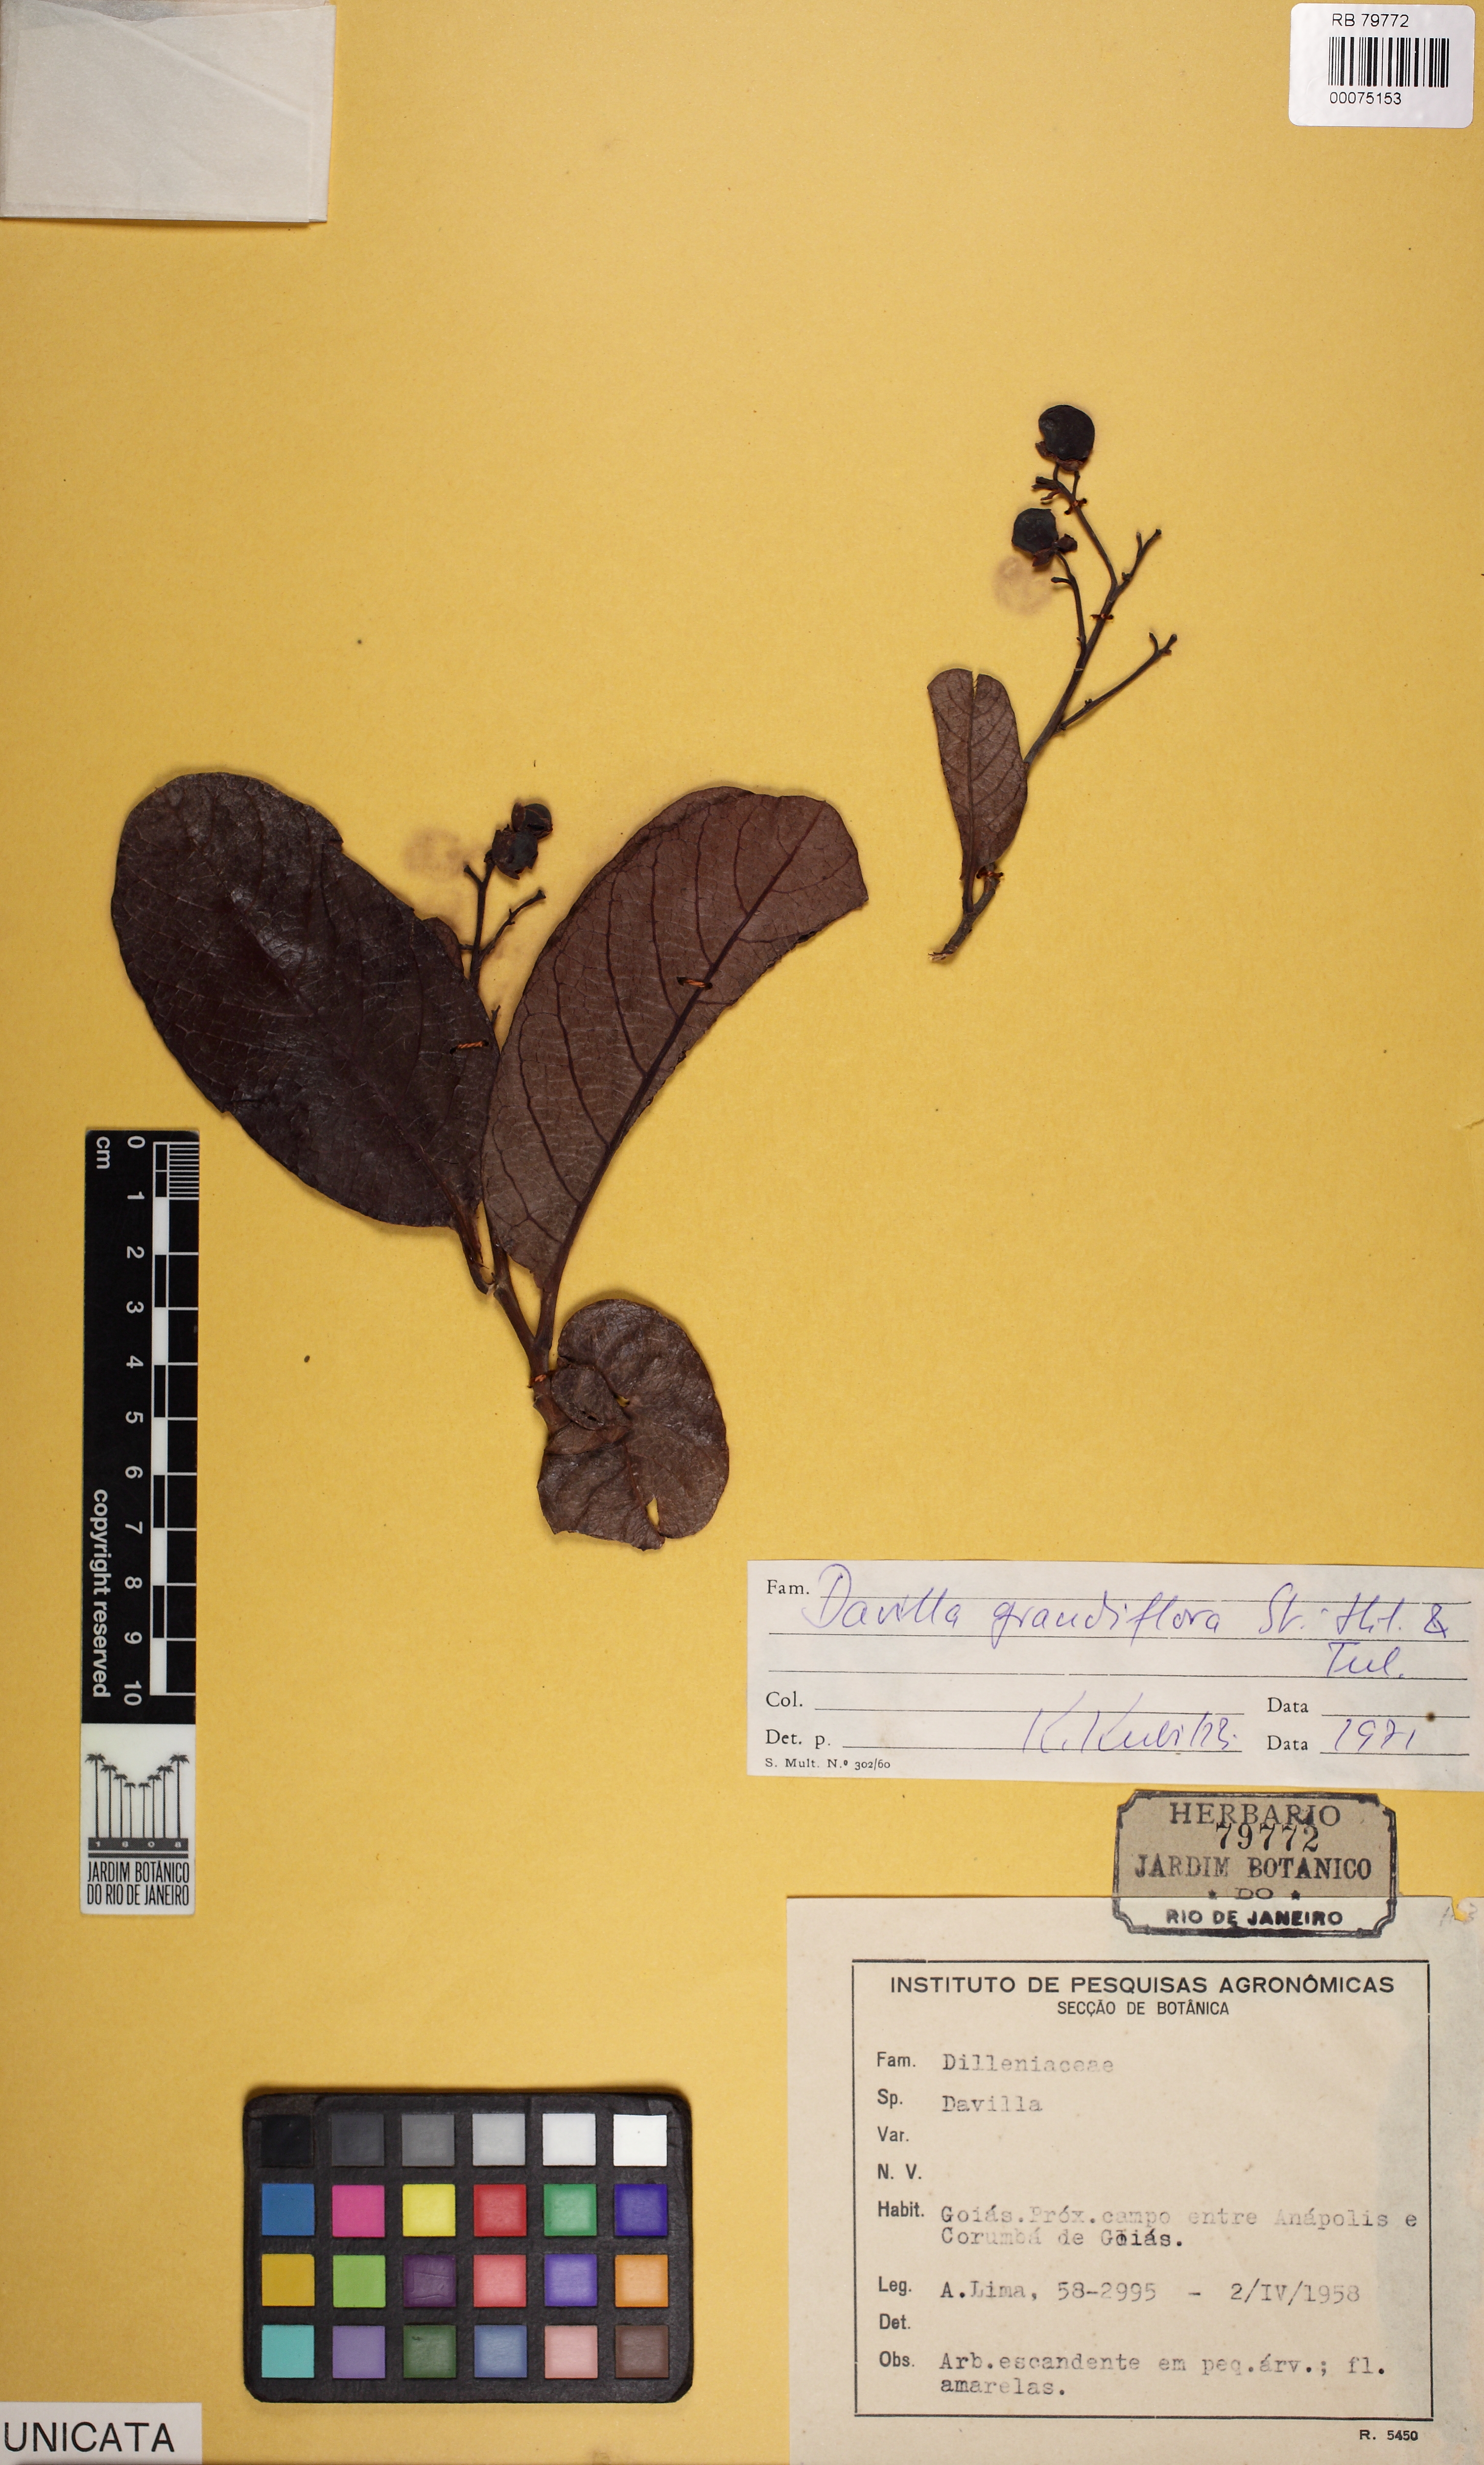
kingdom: Plantae
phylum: Tracheophyta
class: Magnoliopsida
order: Dilleniales
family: Dilleniaceae
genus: Davilla
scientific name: Davilla grandiflora
